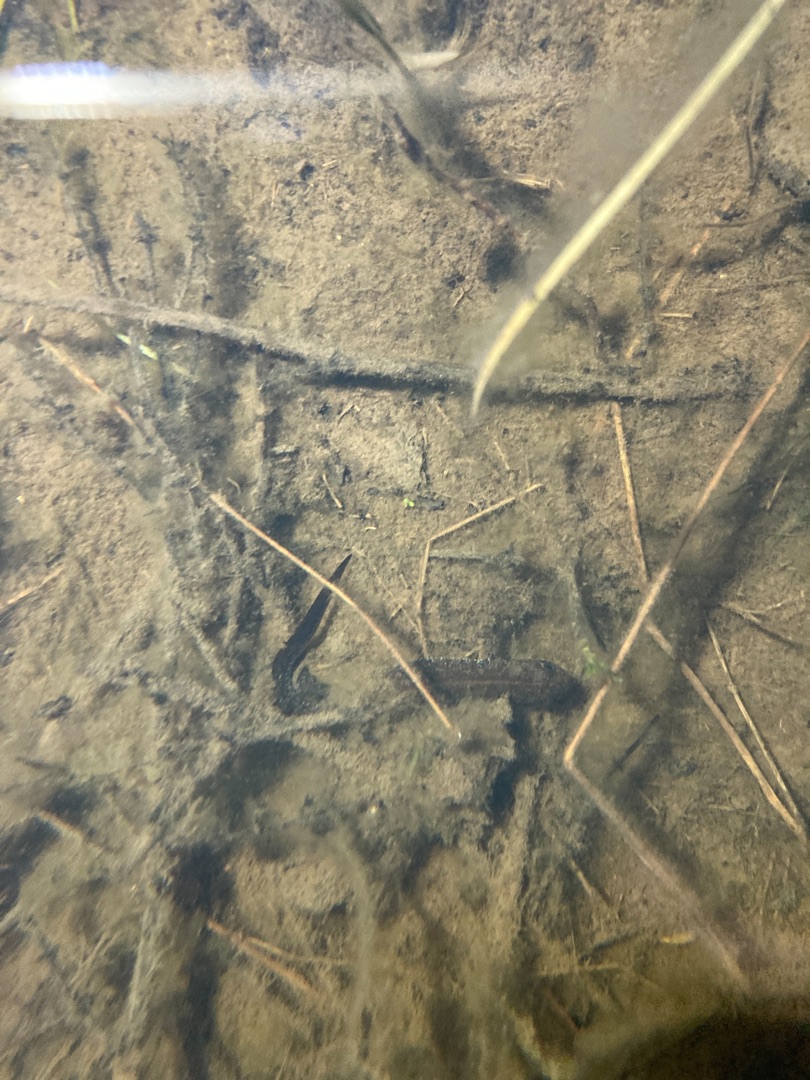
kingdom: Animalia
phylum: Chordata
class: Amphibia
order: Caudata
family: Salamandridae
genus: Triturus
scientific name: Triturus cristatus
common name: Stor vandsalamander
